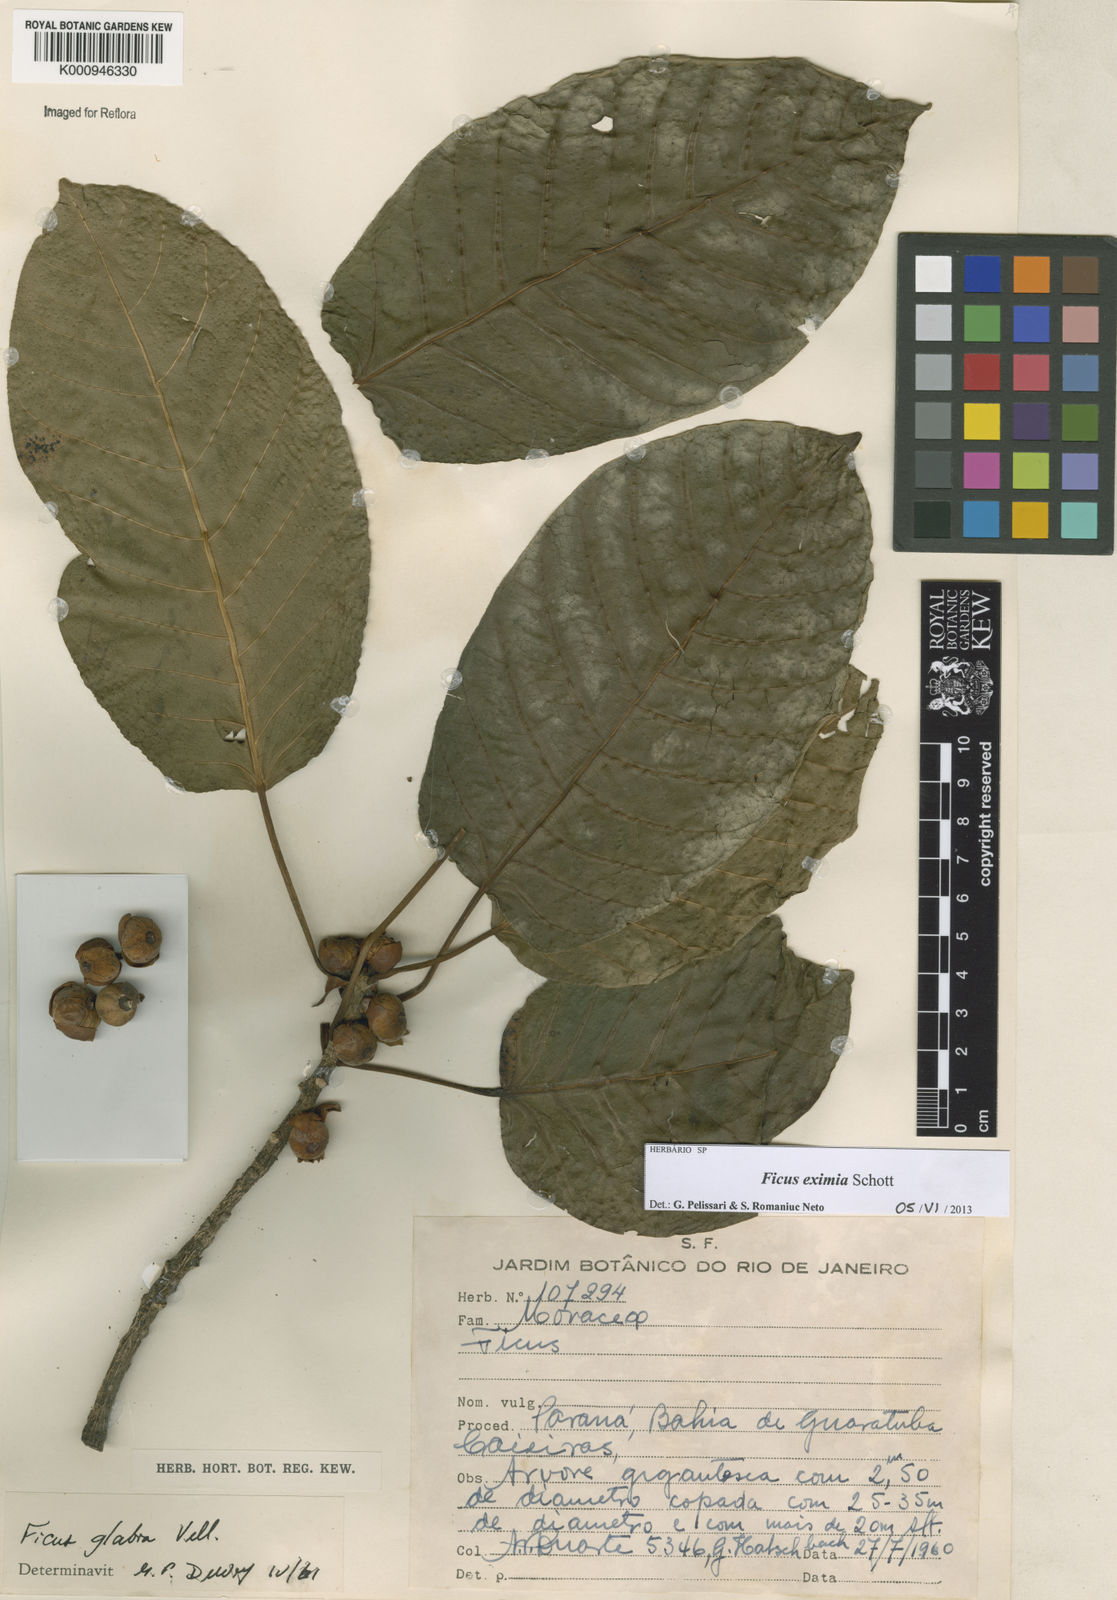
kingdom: Plantae
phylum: Tracheophyta
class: Magnoliopsida
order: Rosales
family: Moraceae
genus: Ficus
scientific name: Ficus eximia
